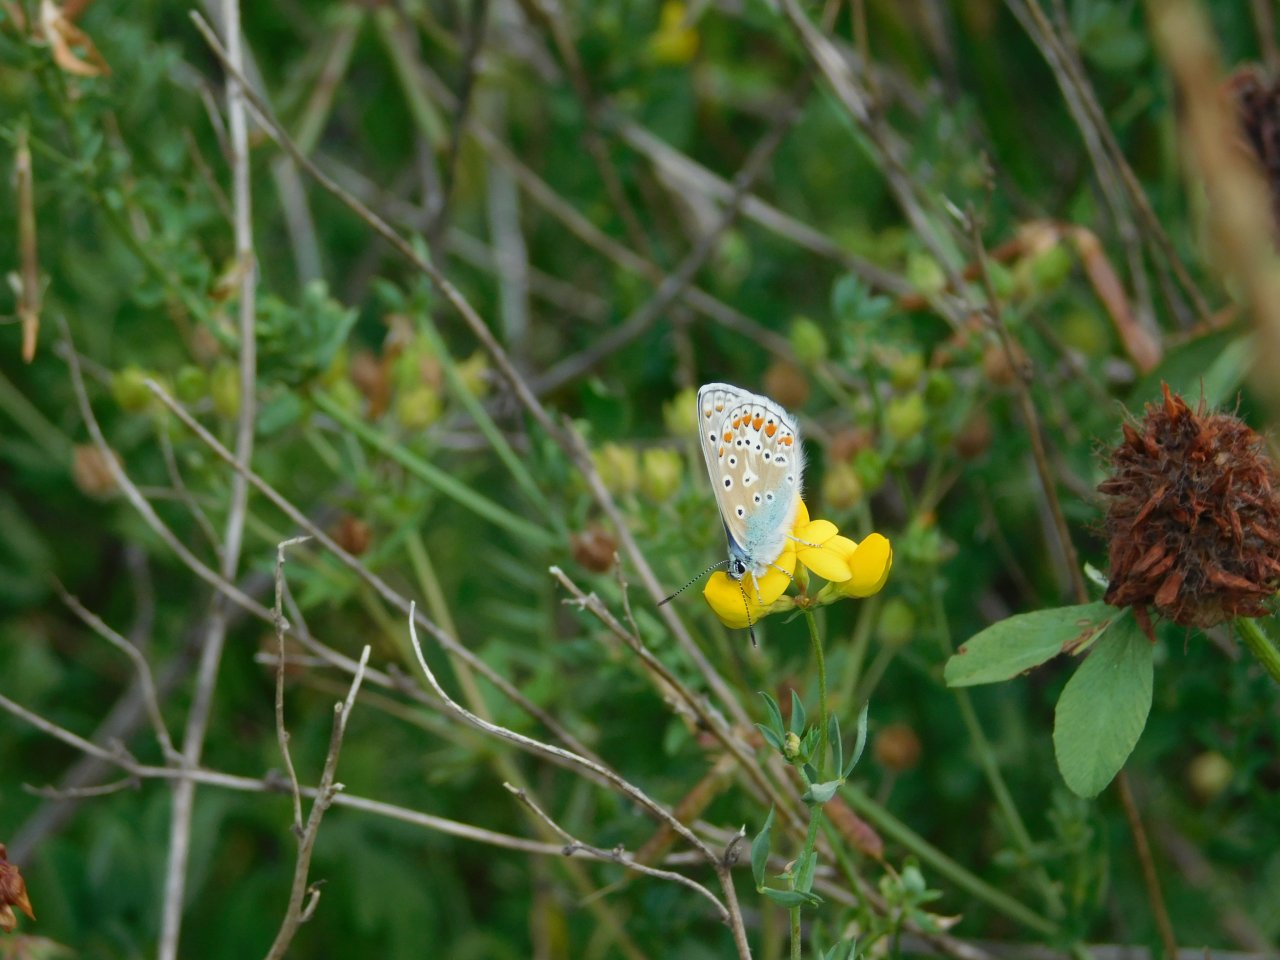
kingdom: Animalia
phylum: Arthropoda
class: Insecta
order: Lepidoptera
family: Lycaenidae
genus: Polyommatus
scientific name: Polyommatus icarus
